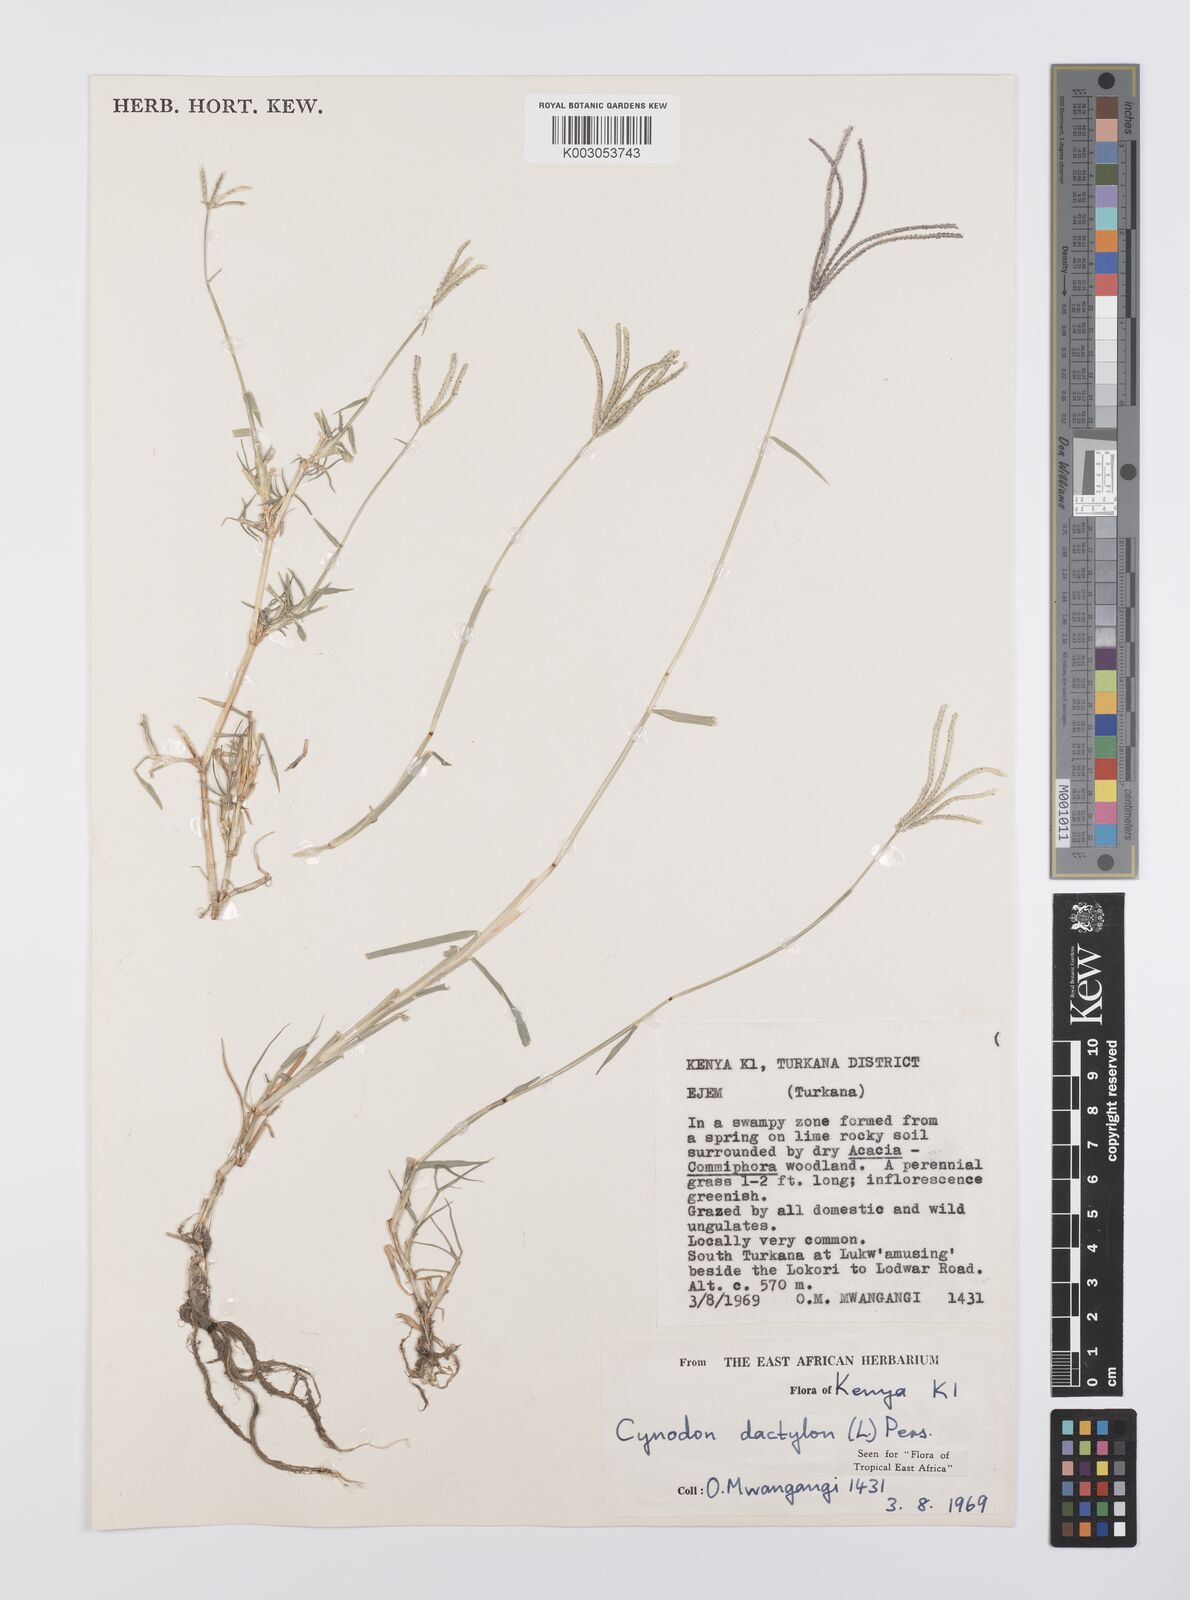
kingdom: Plantae
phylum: Tracheophyta
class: Liliopsida
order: Poales
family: Poaceae
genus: Cynodon
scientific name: Cynodon dactylon
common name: Bermuda grass
